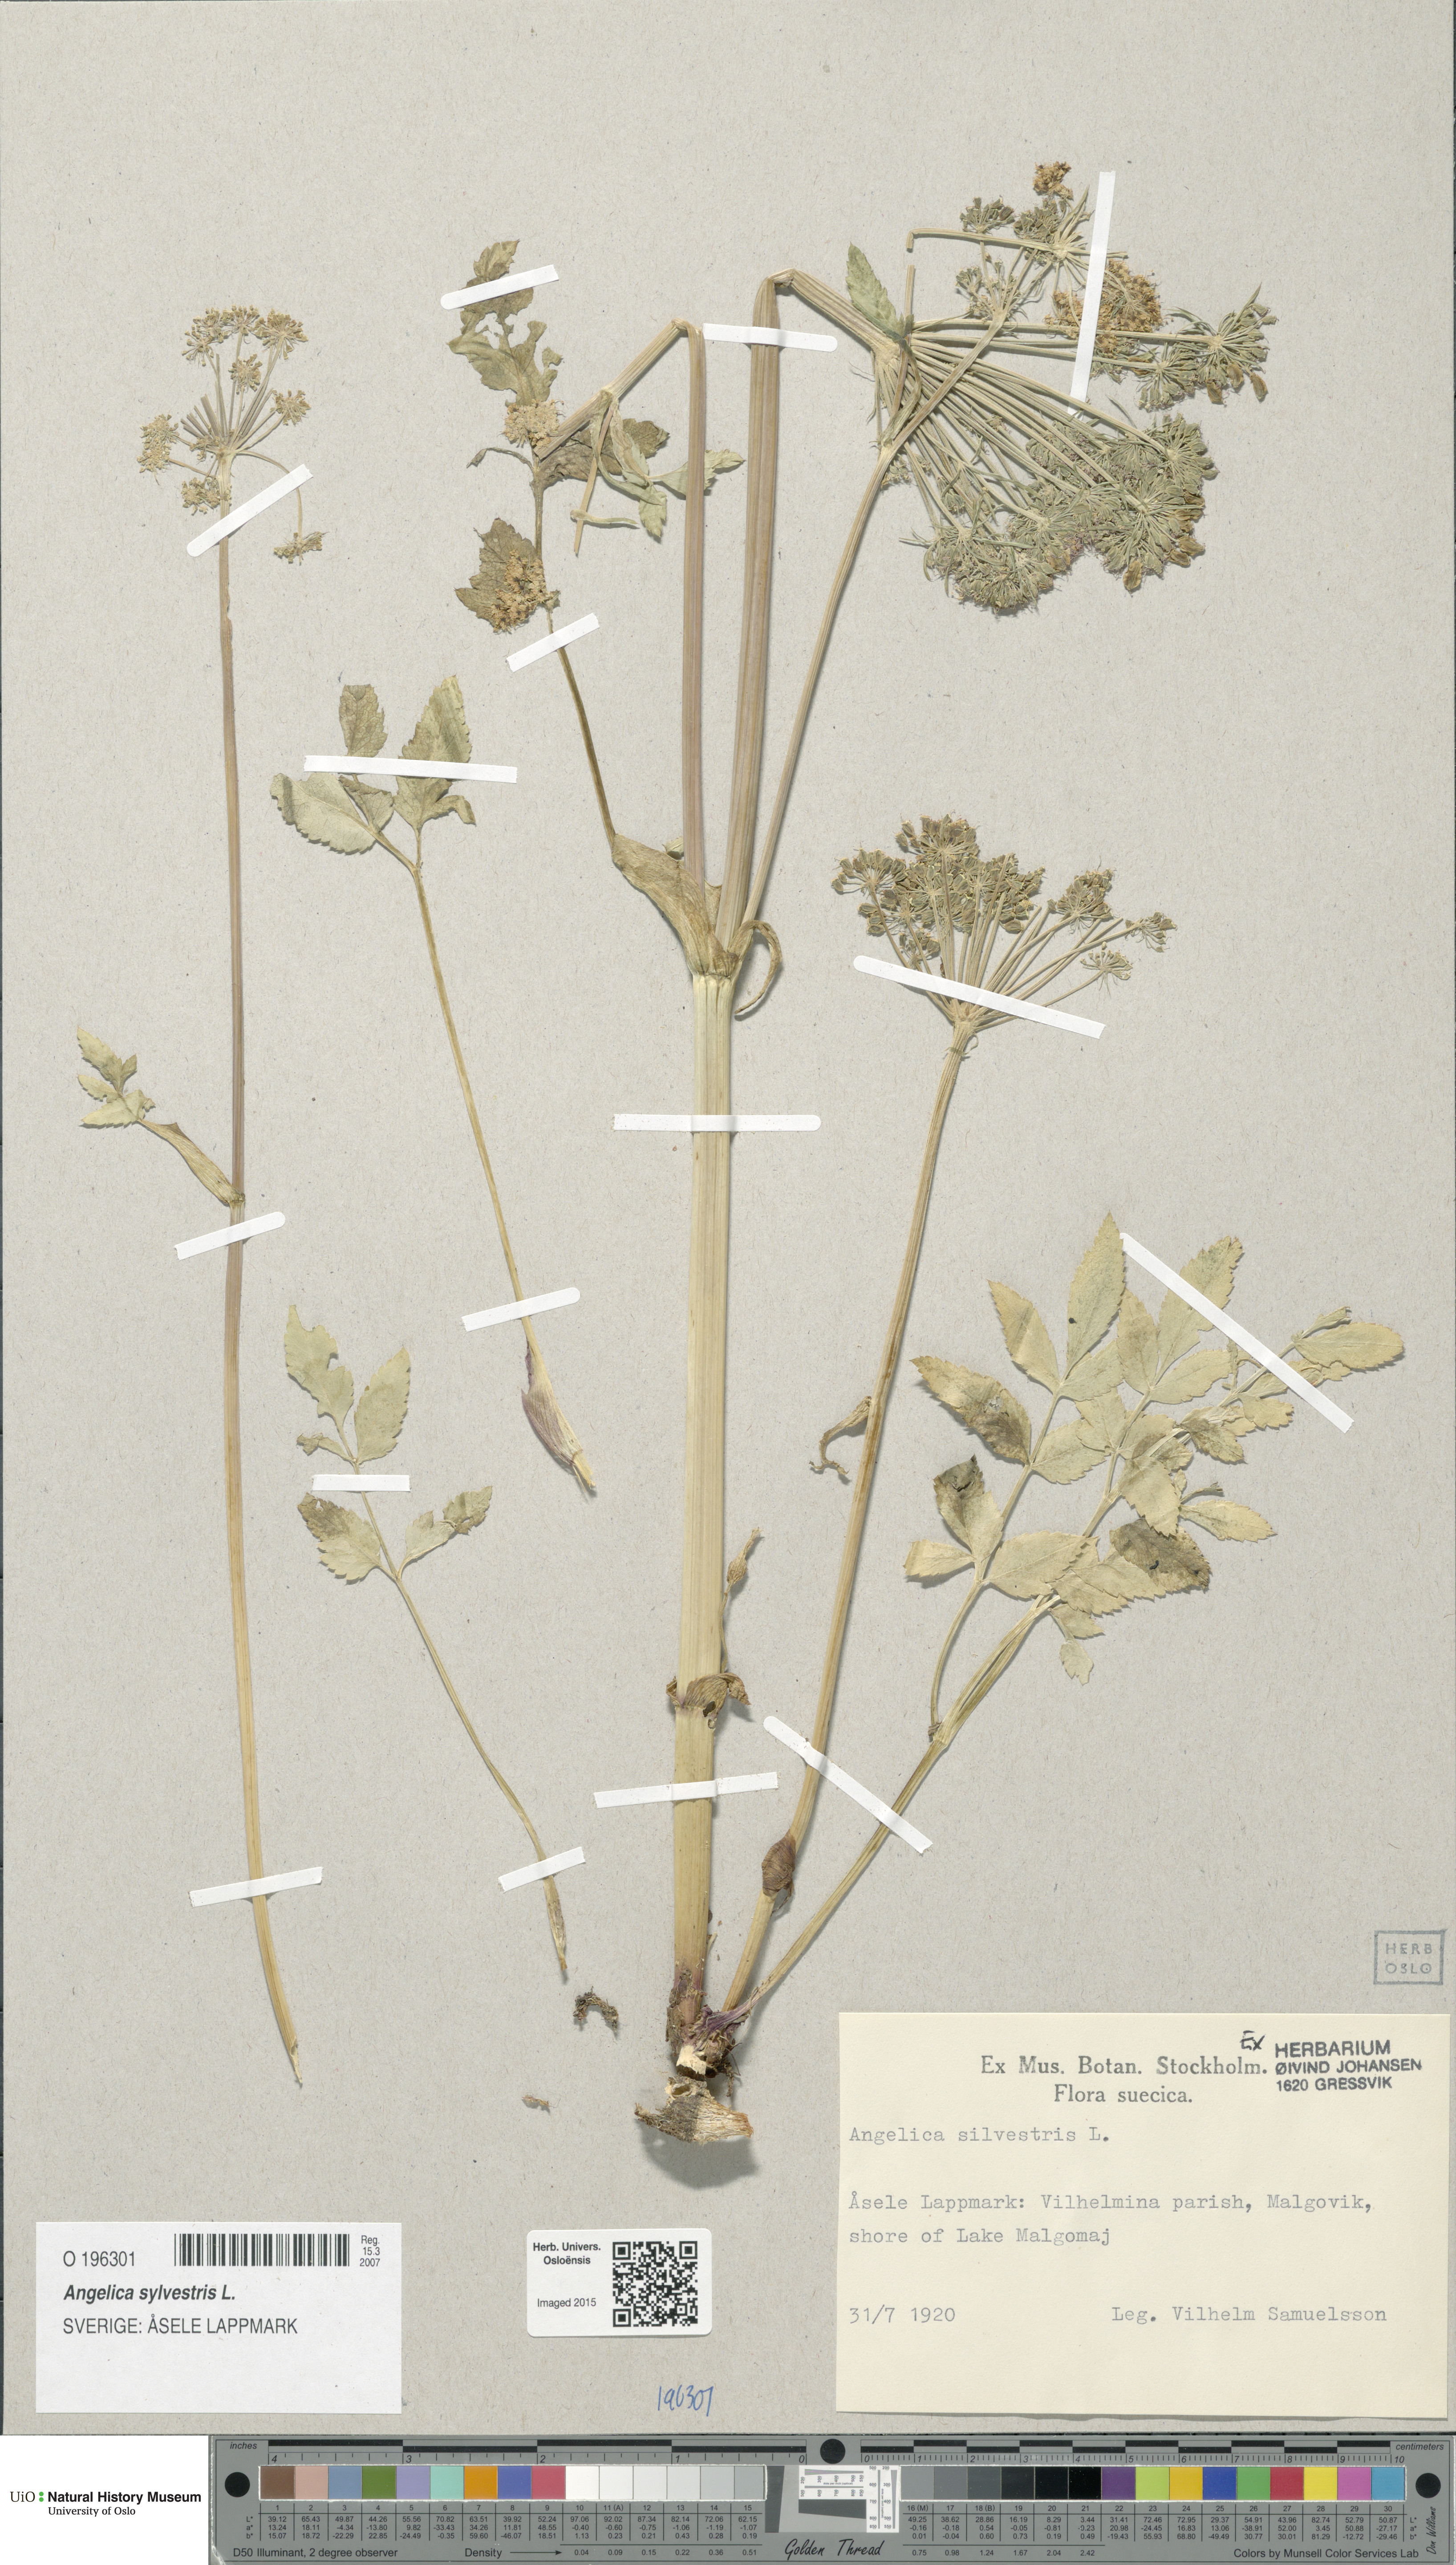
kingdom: Plantae
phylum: Tracheophyta
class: Magnoliopsida
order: Apiales
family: Apiaceae
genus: Angelica
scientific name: Angelica sylvestris
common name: Wild angelica
